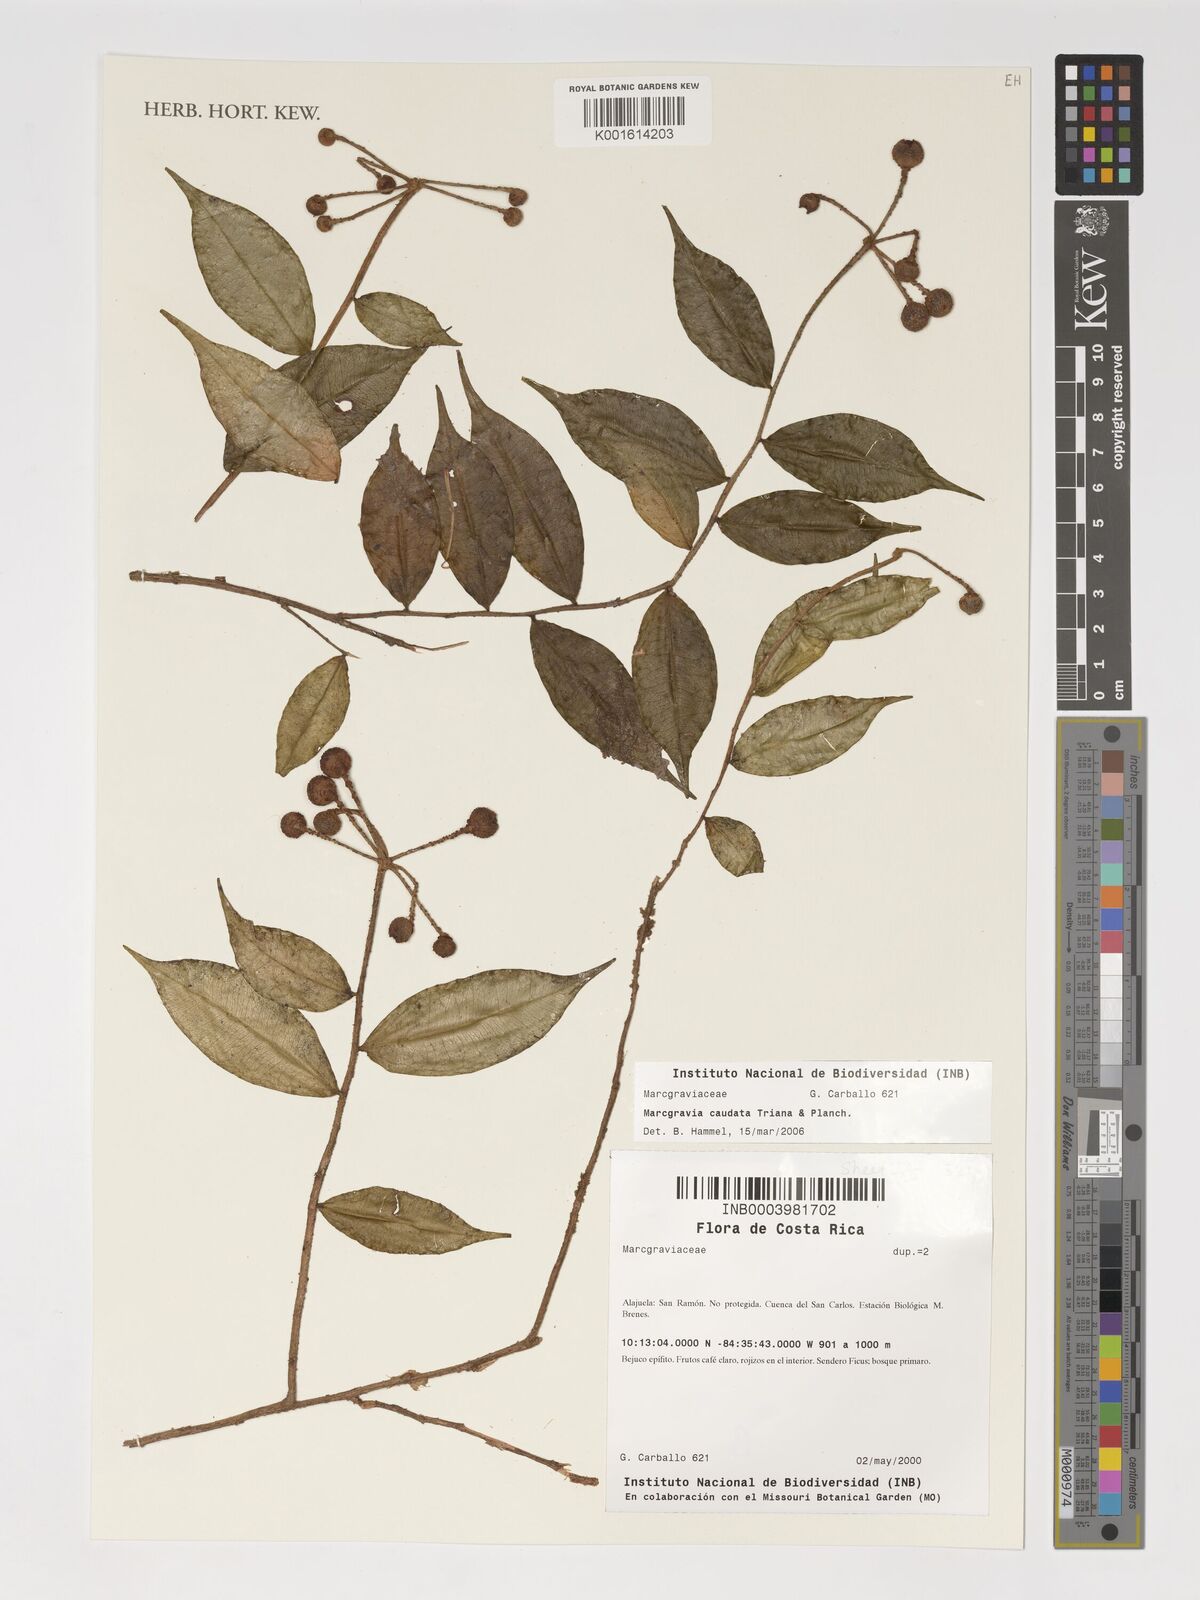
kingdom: Plantae
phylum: Tracheophyta
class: Magnoliopsida
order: Ericales
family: Marcgraviaceae
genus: Marcgravia
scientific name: Marcgravia caudata
